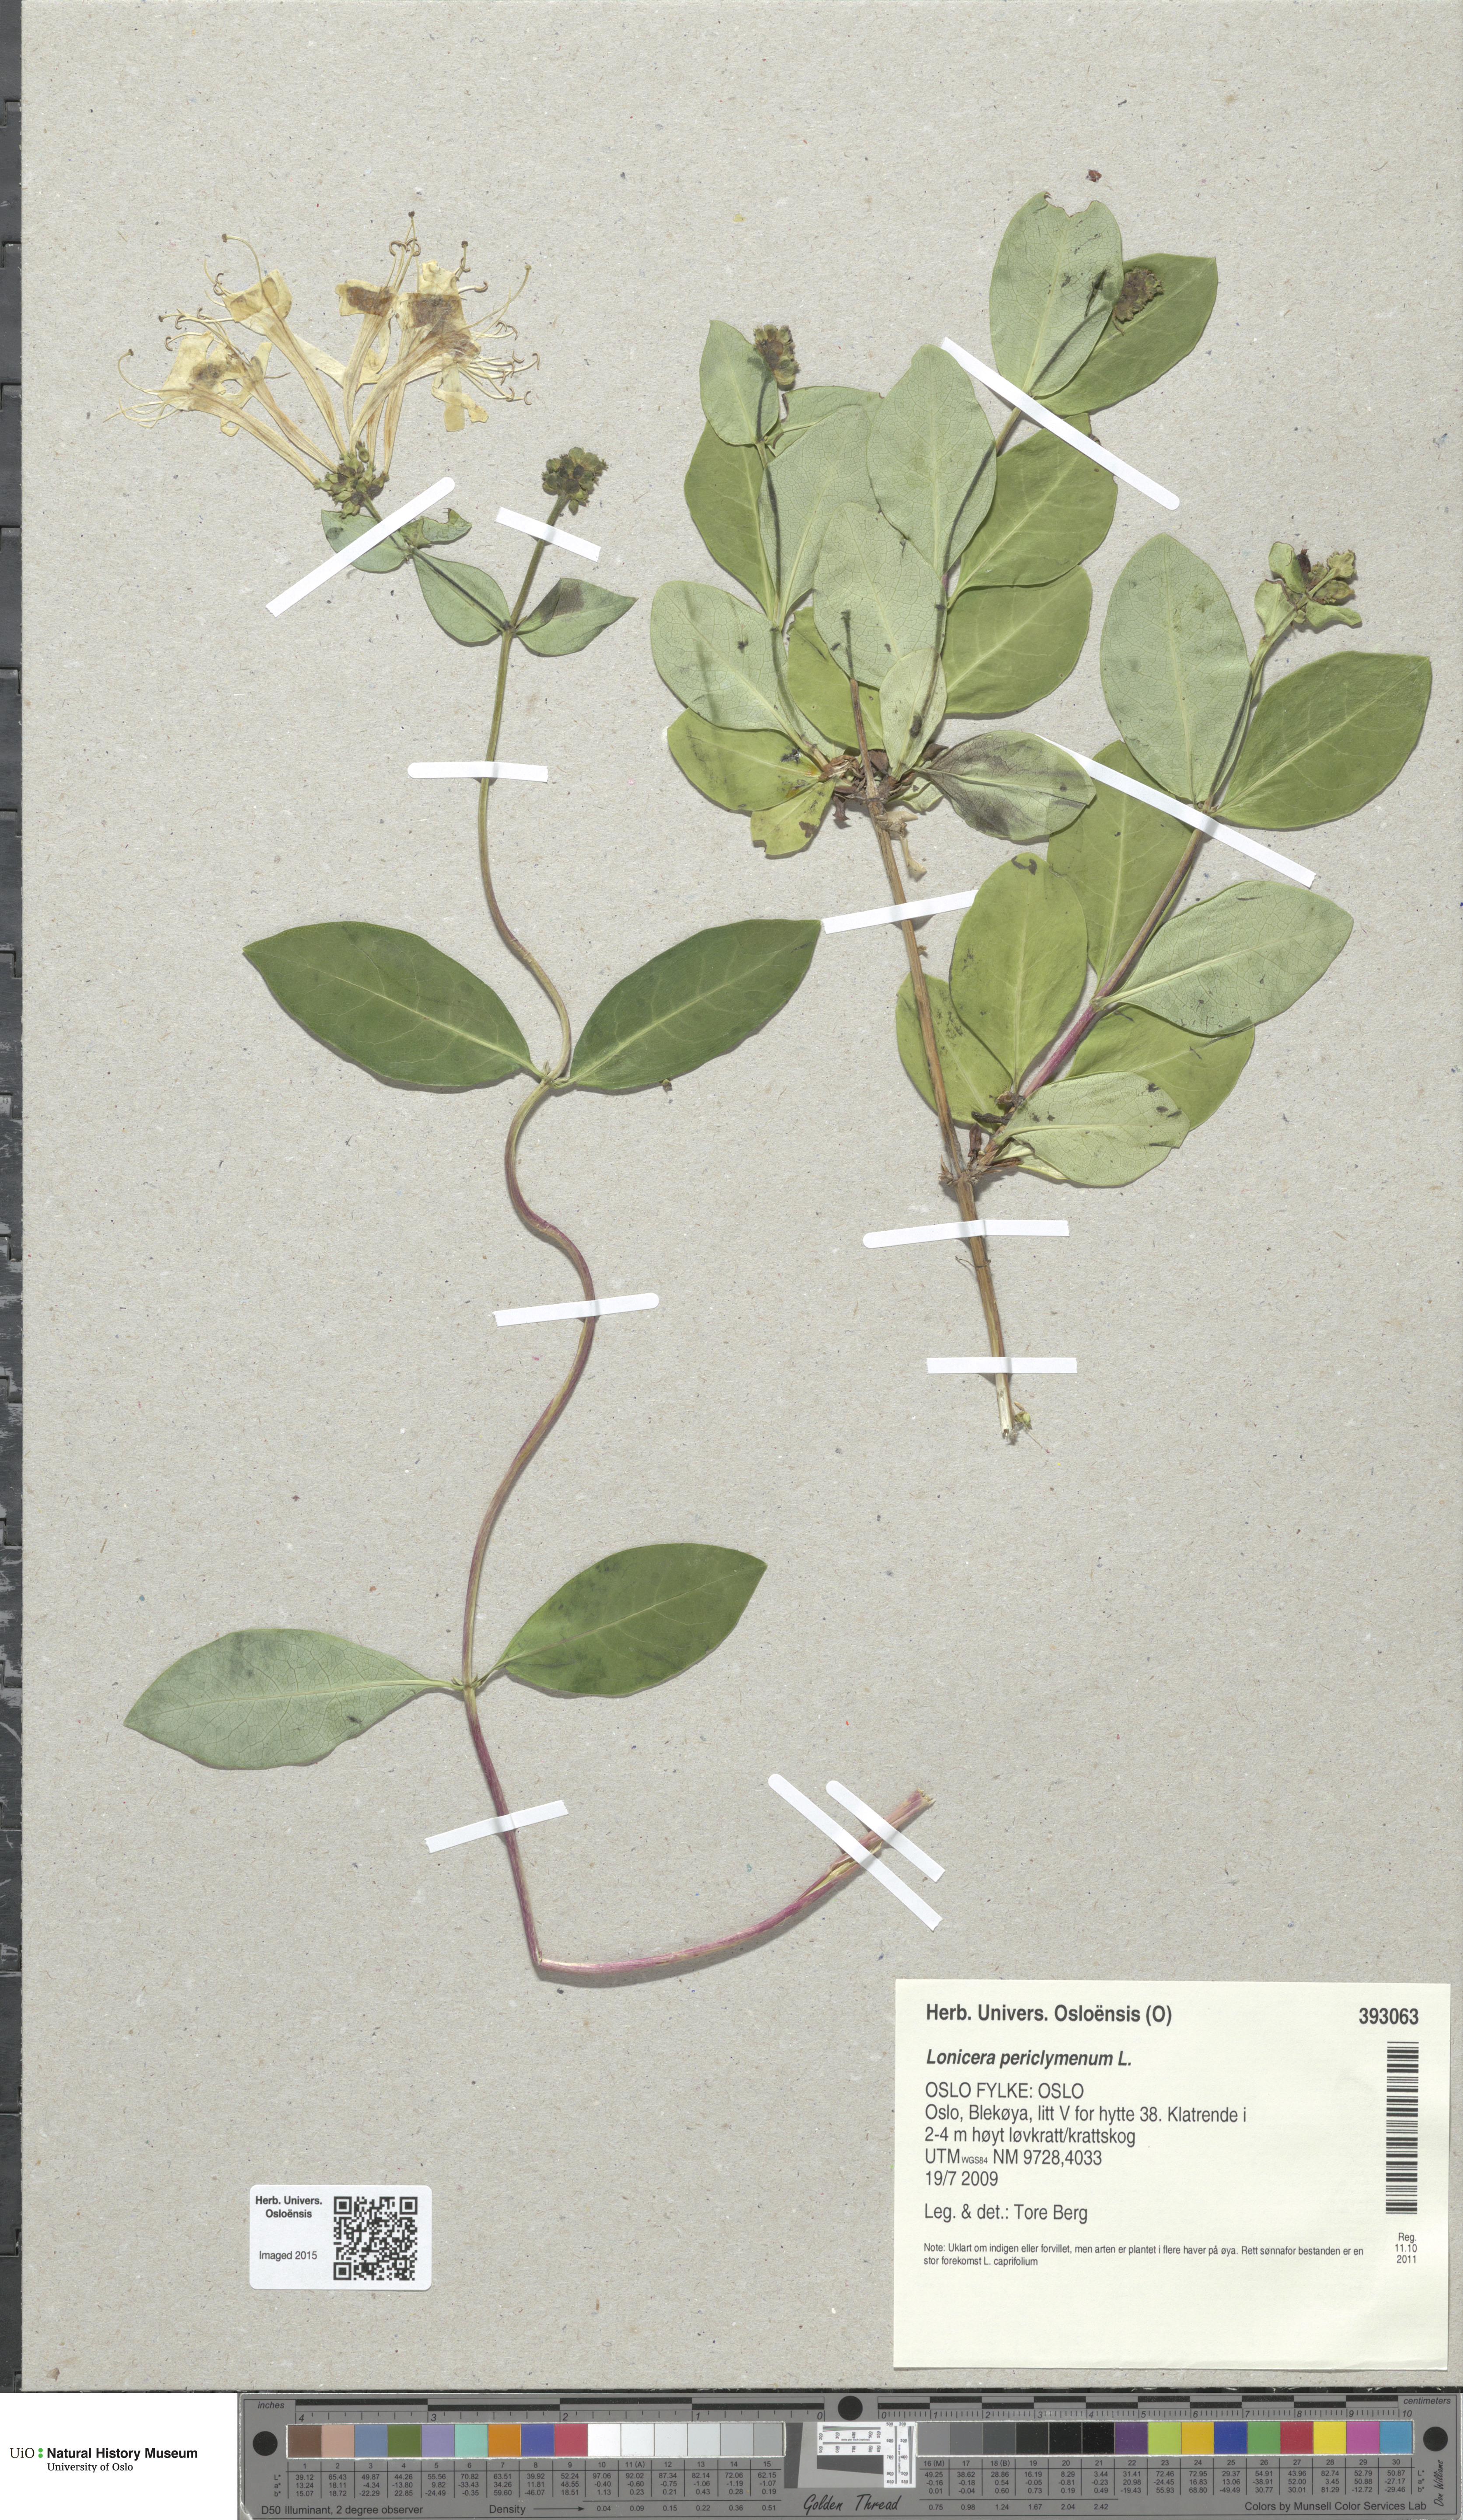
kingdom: Plantae
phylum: Tracheophyta
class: Magnoliopsida
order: Dipsacales
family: Caprifoliaceae
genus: Lonicera
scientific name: Lonicera periclymenum
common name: European honeysuckle
